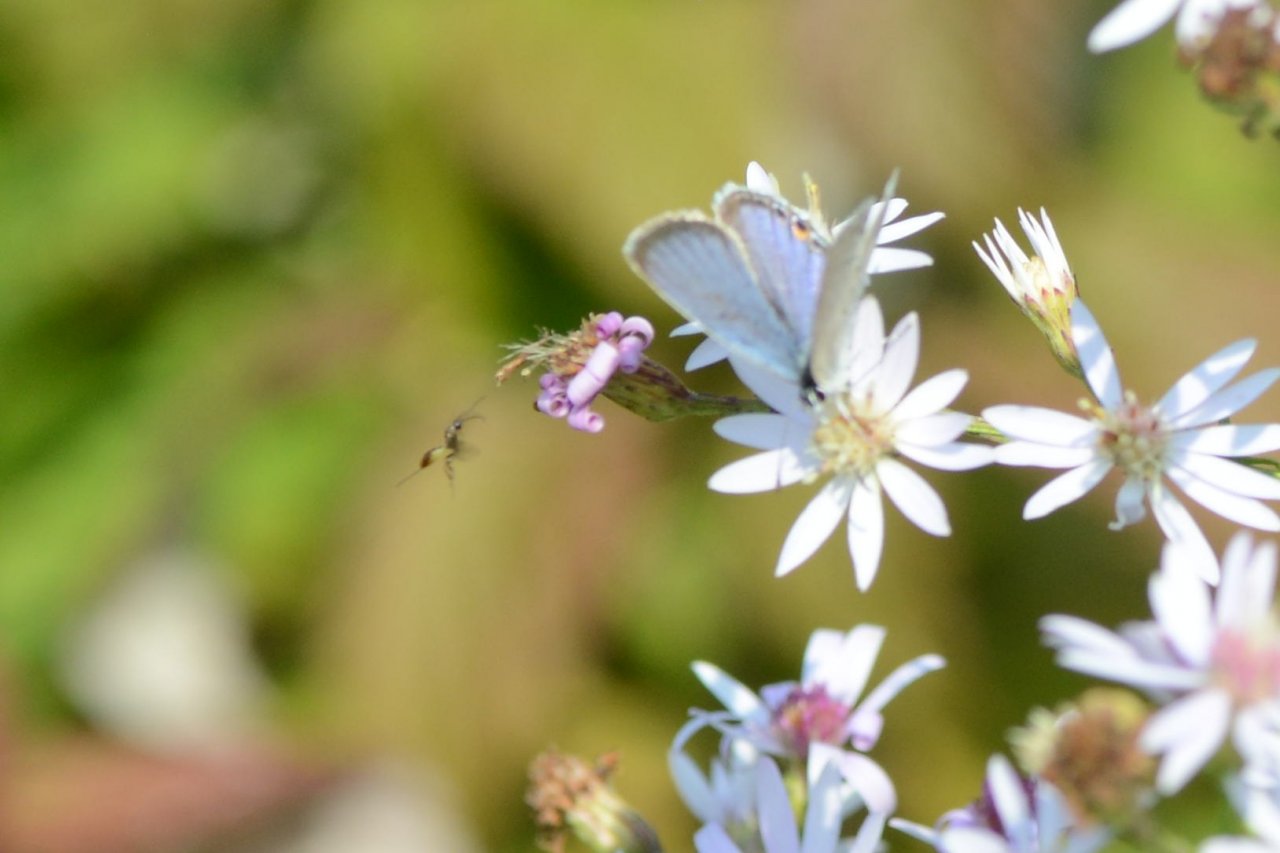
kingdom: Animalia
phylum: Arthropoda
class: Insecta
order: Lepidoptera
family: Lycaenidae
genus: Elkalyce
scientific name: Elkalyce comyntas
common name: Eastern Tailed-Blue
